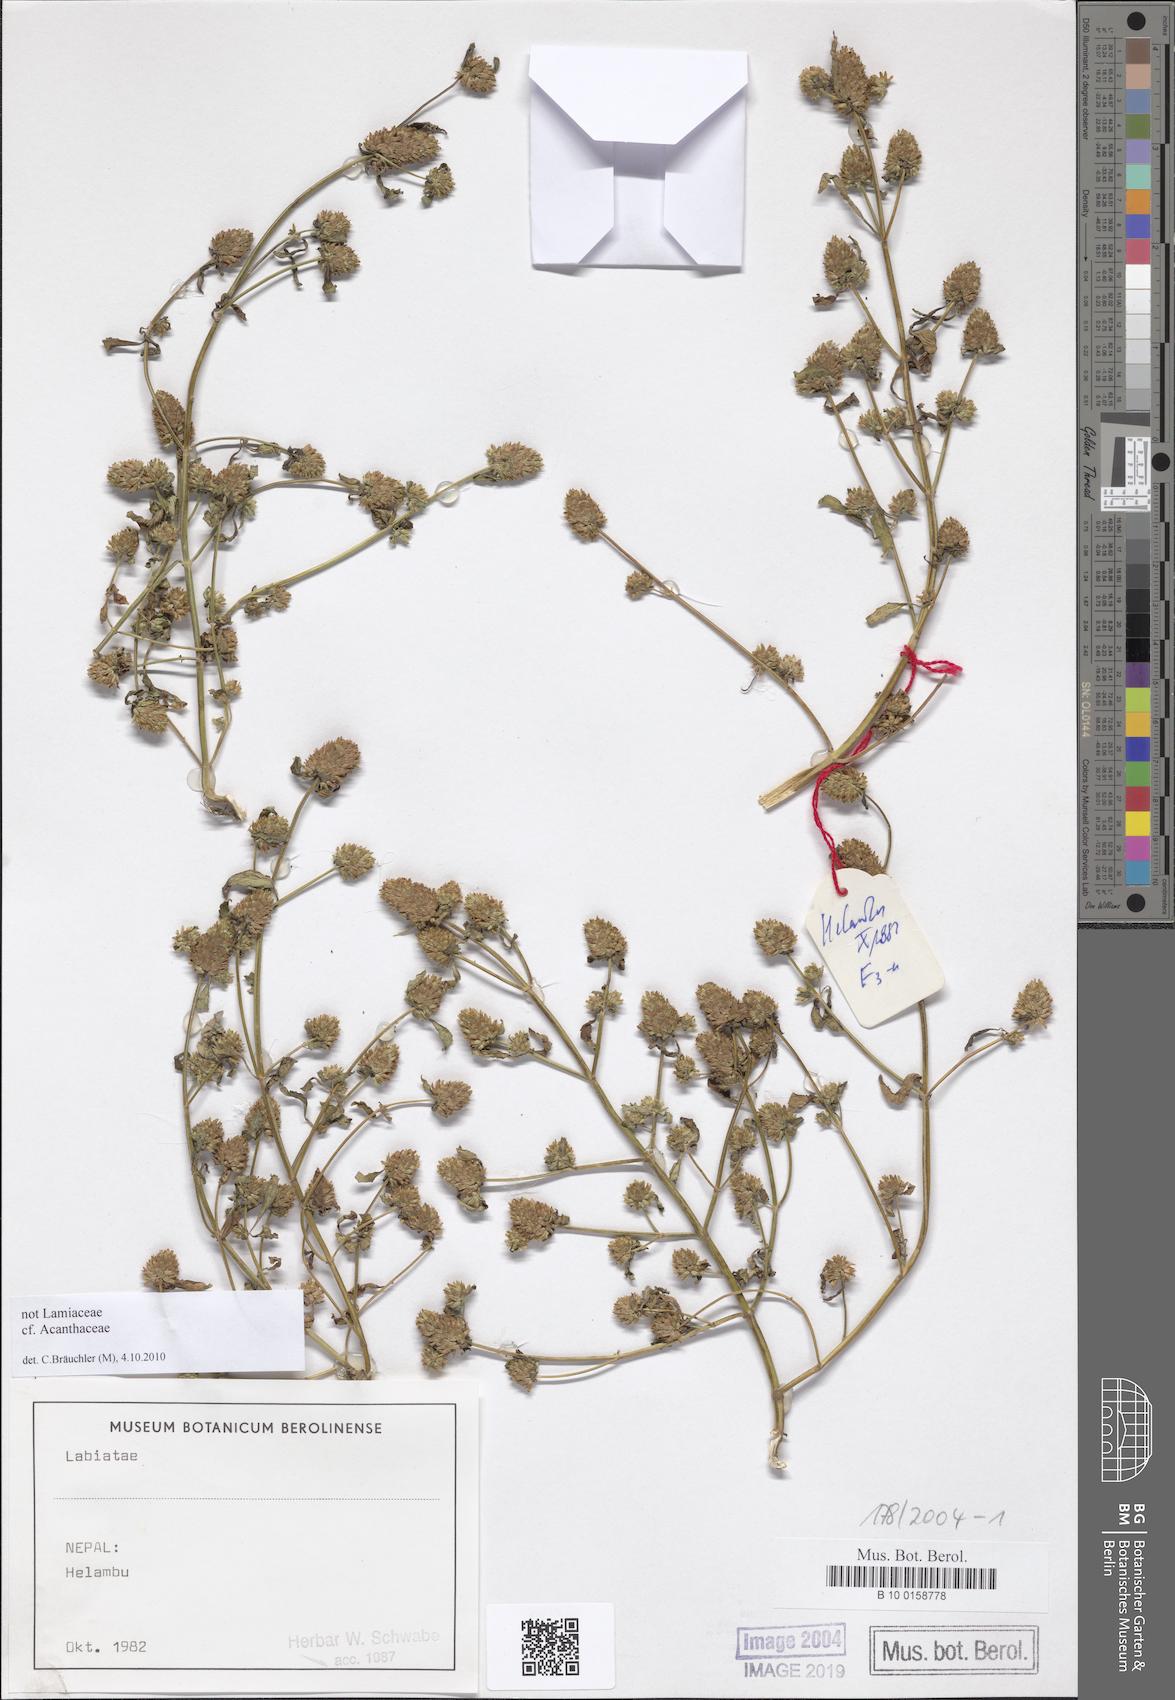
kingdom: Plantae
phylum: Tracheophyta
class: Magnoliopsida
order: Lamiales
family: Acanthaceae
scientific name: Acanthaceae
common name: Acanthaceae
